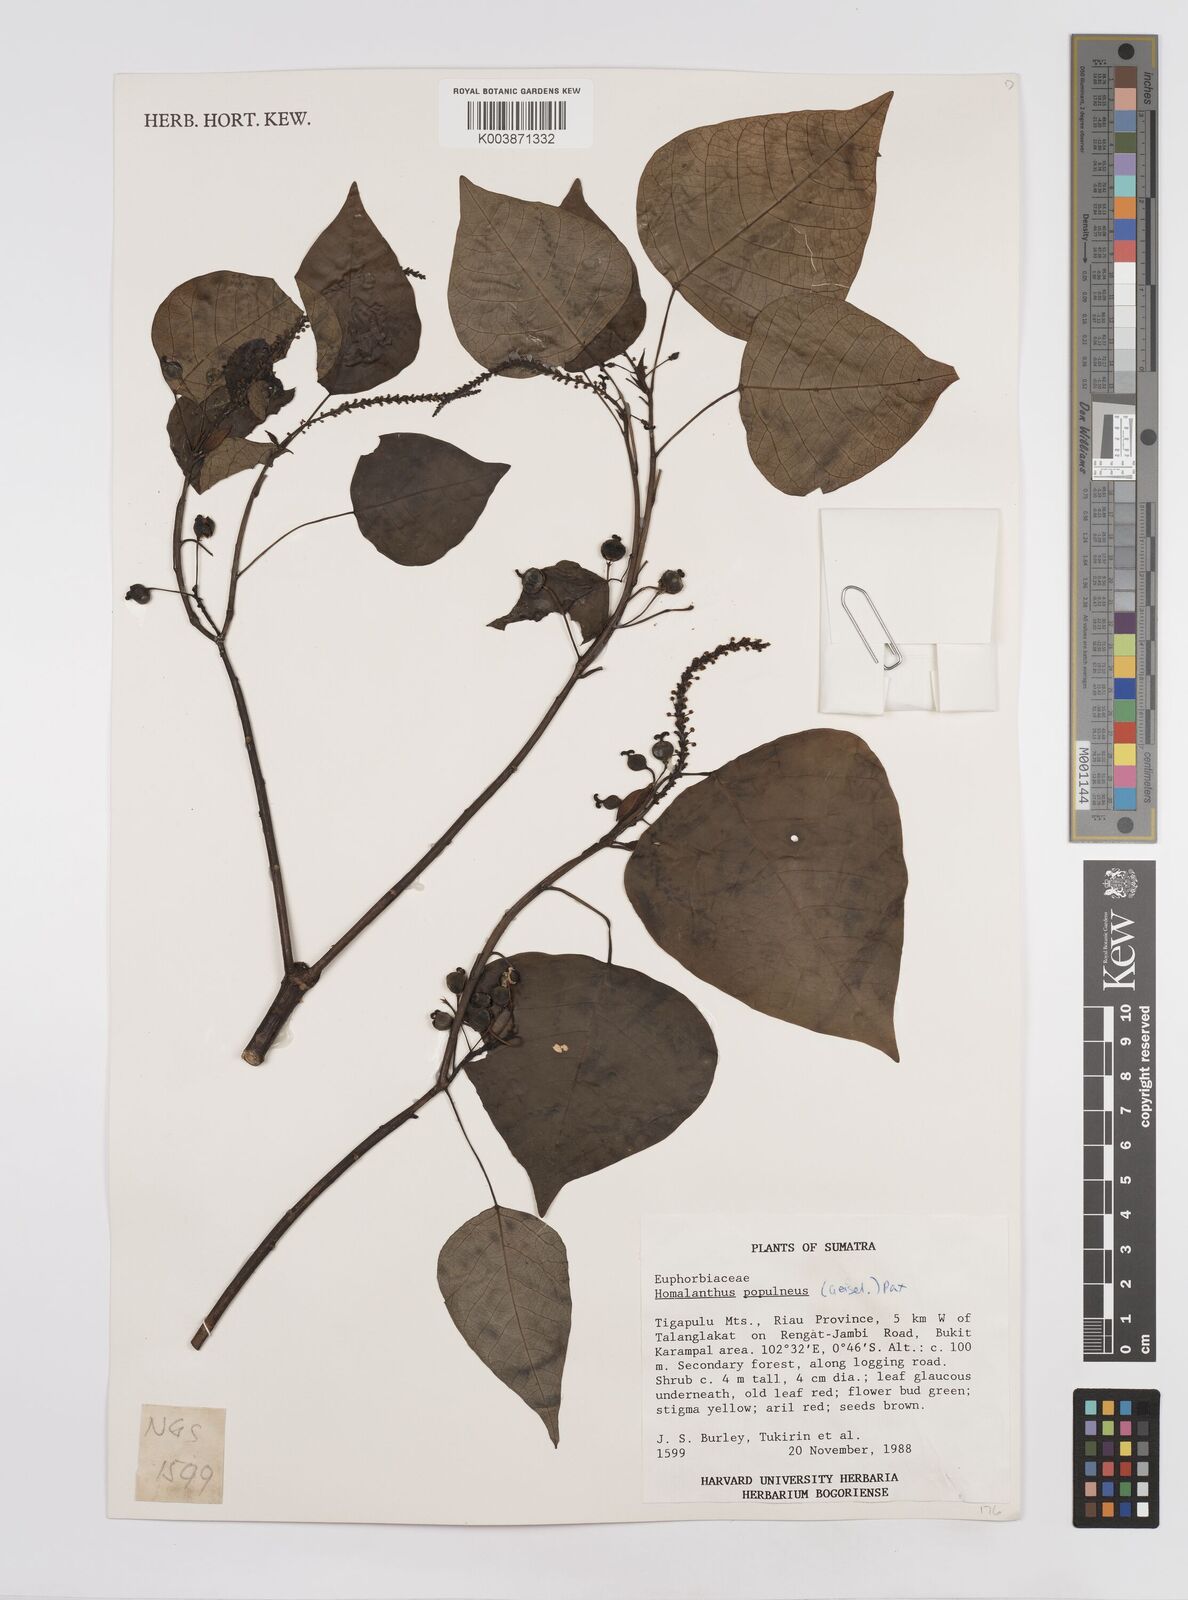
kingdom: Plantae
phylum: Tracheophyta
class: Magnoliopsida
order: Malpighiales
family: Euphorbiaceae
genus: Homalanthus
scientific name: Homalanthus populneus
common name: Spurge
